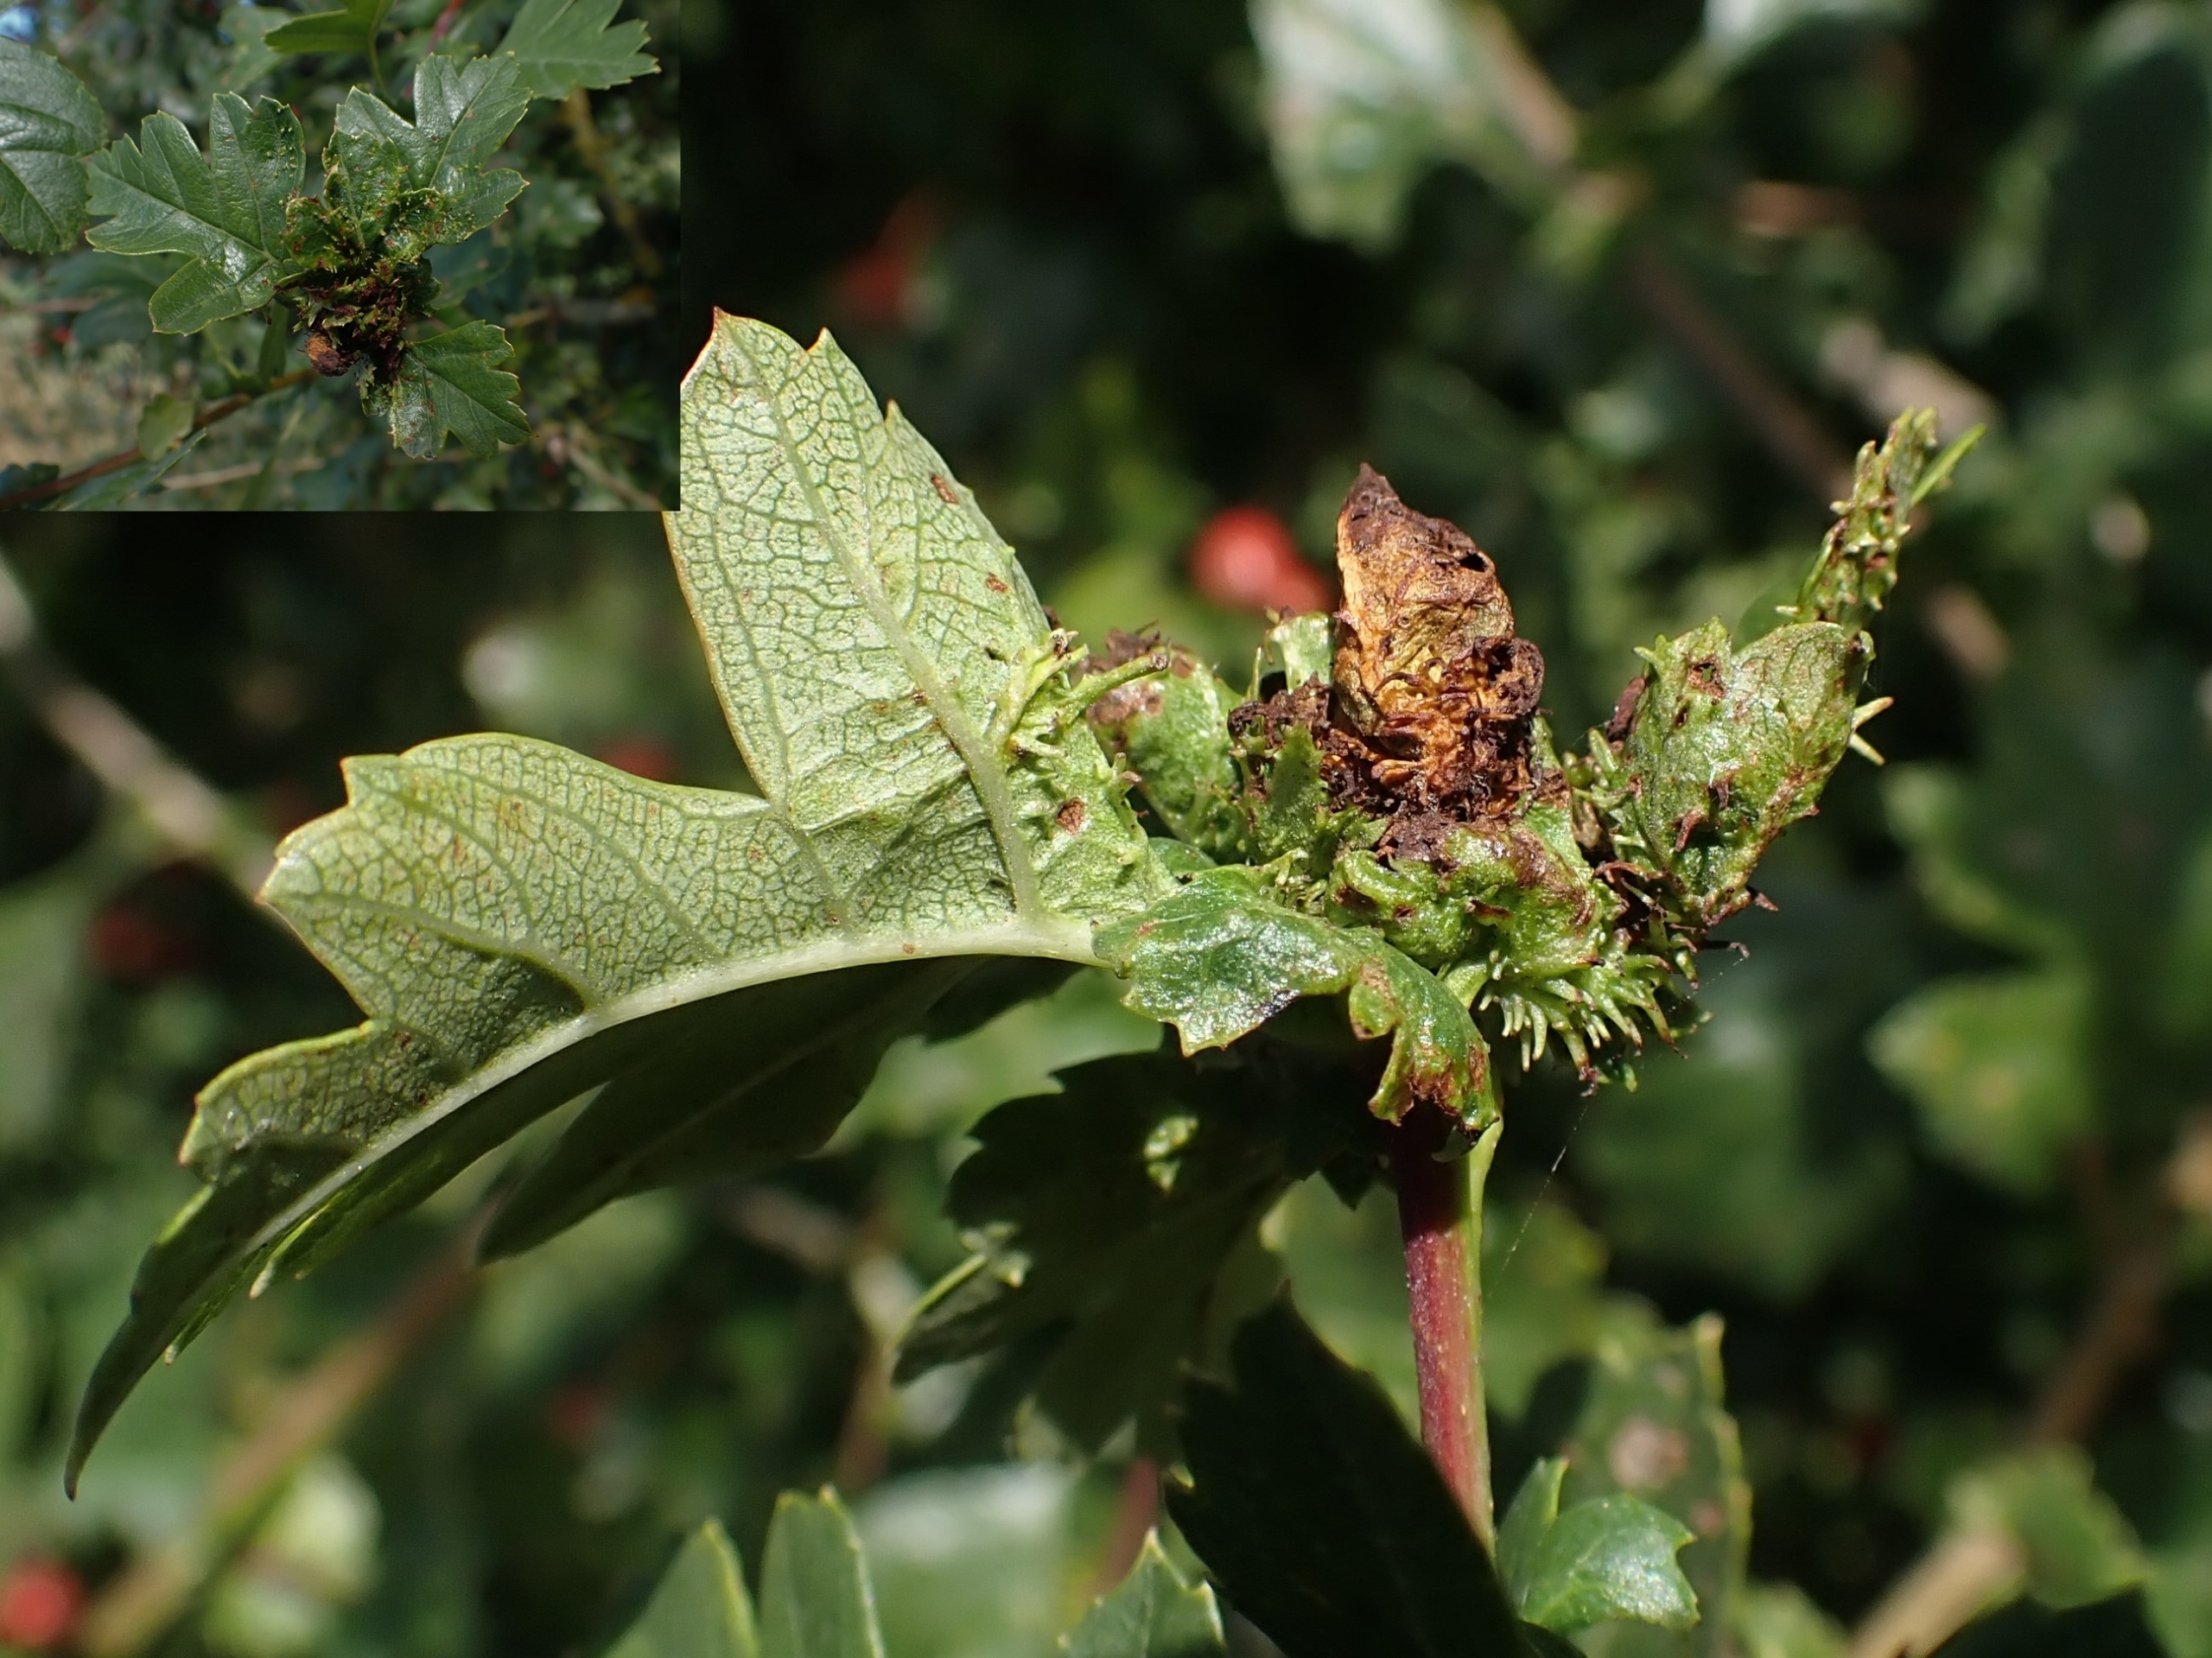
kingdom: Animalia
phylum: Arthropoda
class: Insecta
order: Diptera
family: Cecidomyiidae
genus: Dasineura
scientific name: Dasineura crataegi
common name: Tjørnerosetgalmyg
